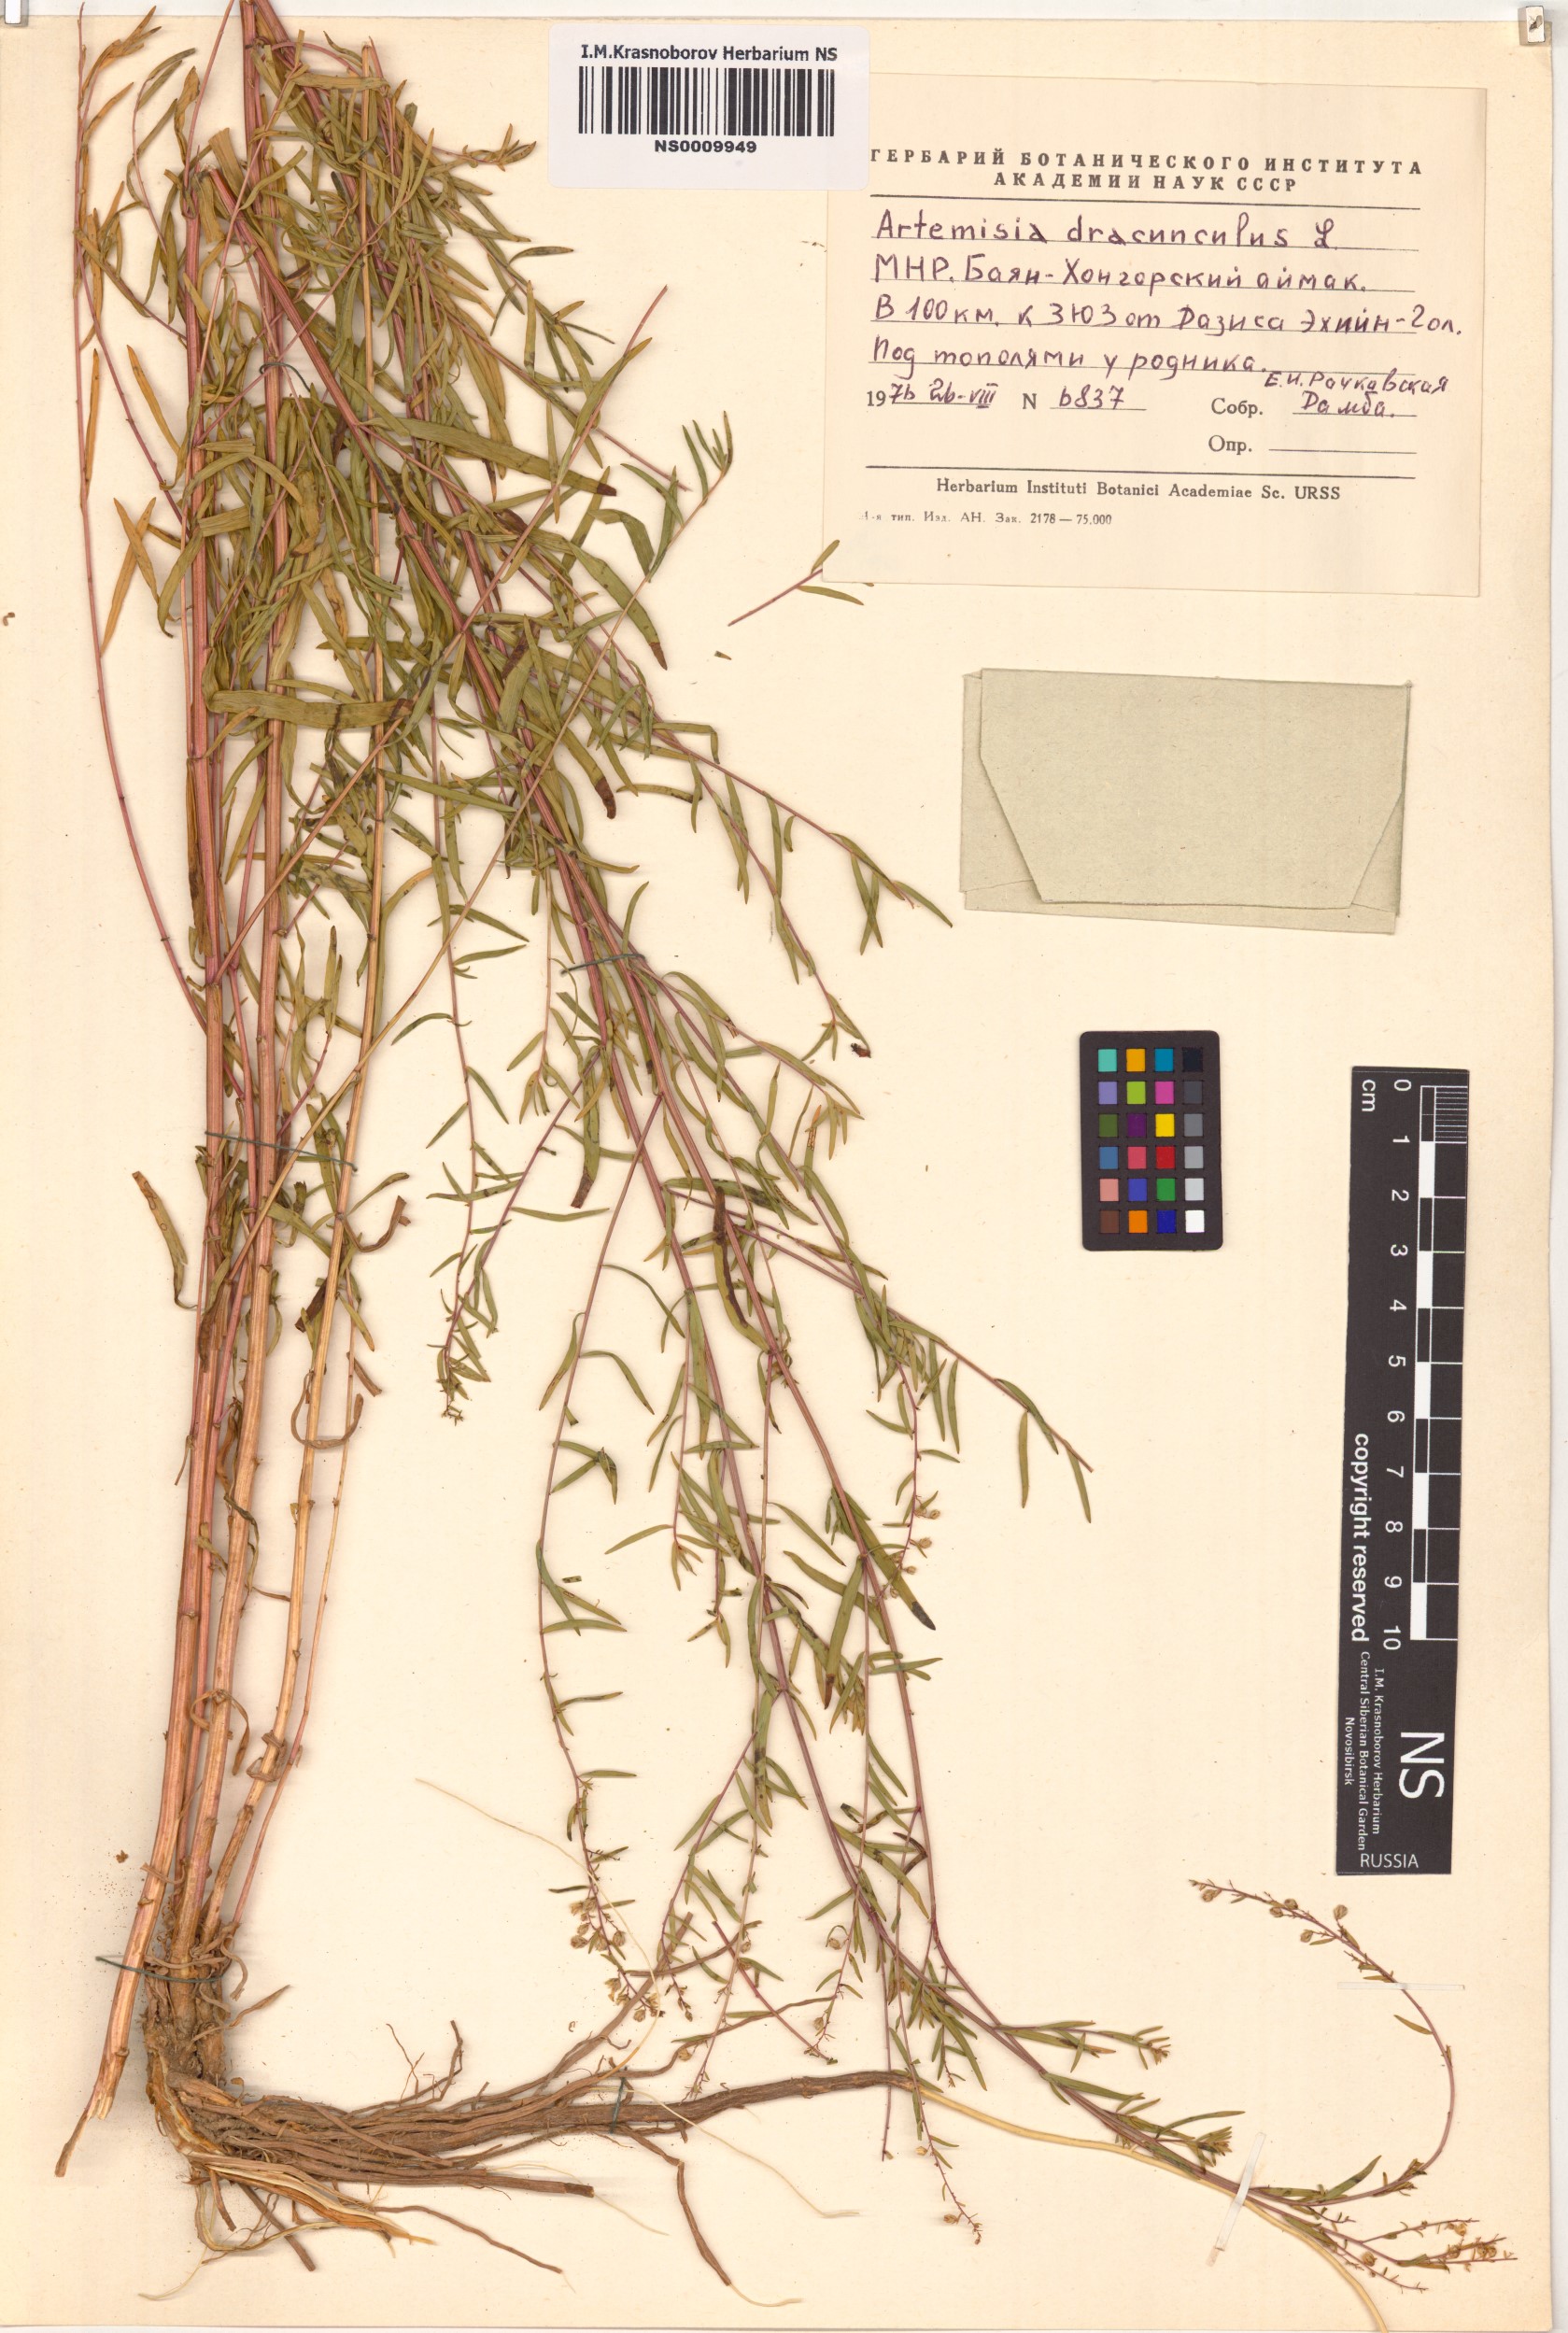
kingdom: Plantae
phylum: Tracheophyta
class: Magnoliopsida
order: Asterales
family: Asteraceae
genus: Artemisia
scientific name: Artemisia dracunculus
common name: Tarragon
